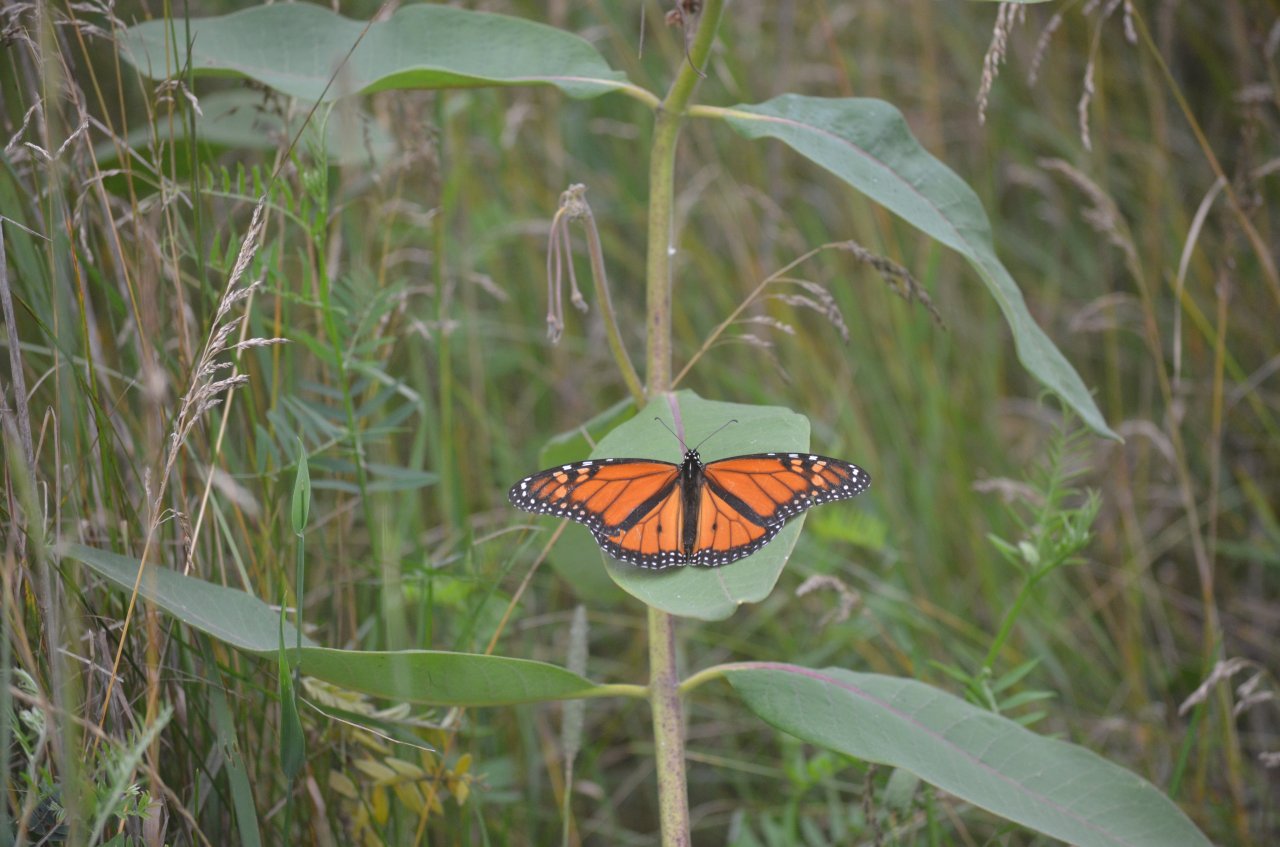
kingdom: Animalia
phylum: Arthropoda
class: Insecta
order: Lepidoptera
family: Nymphalidae
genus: Danaus
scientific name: Danaus plexippus
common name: Monarch
